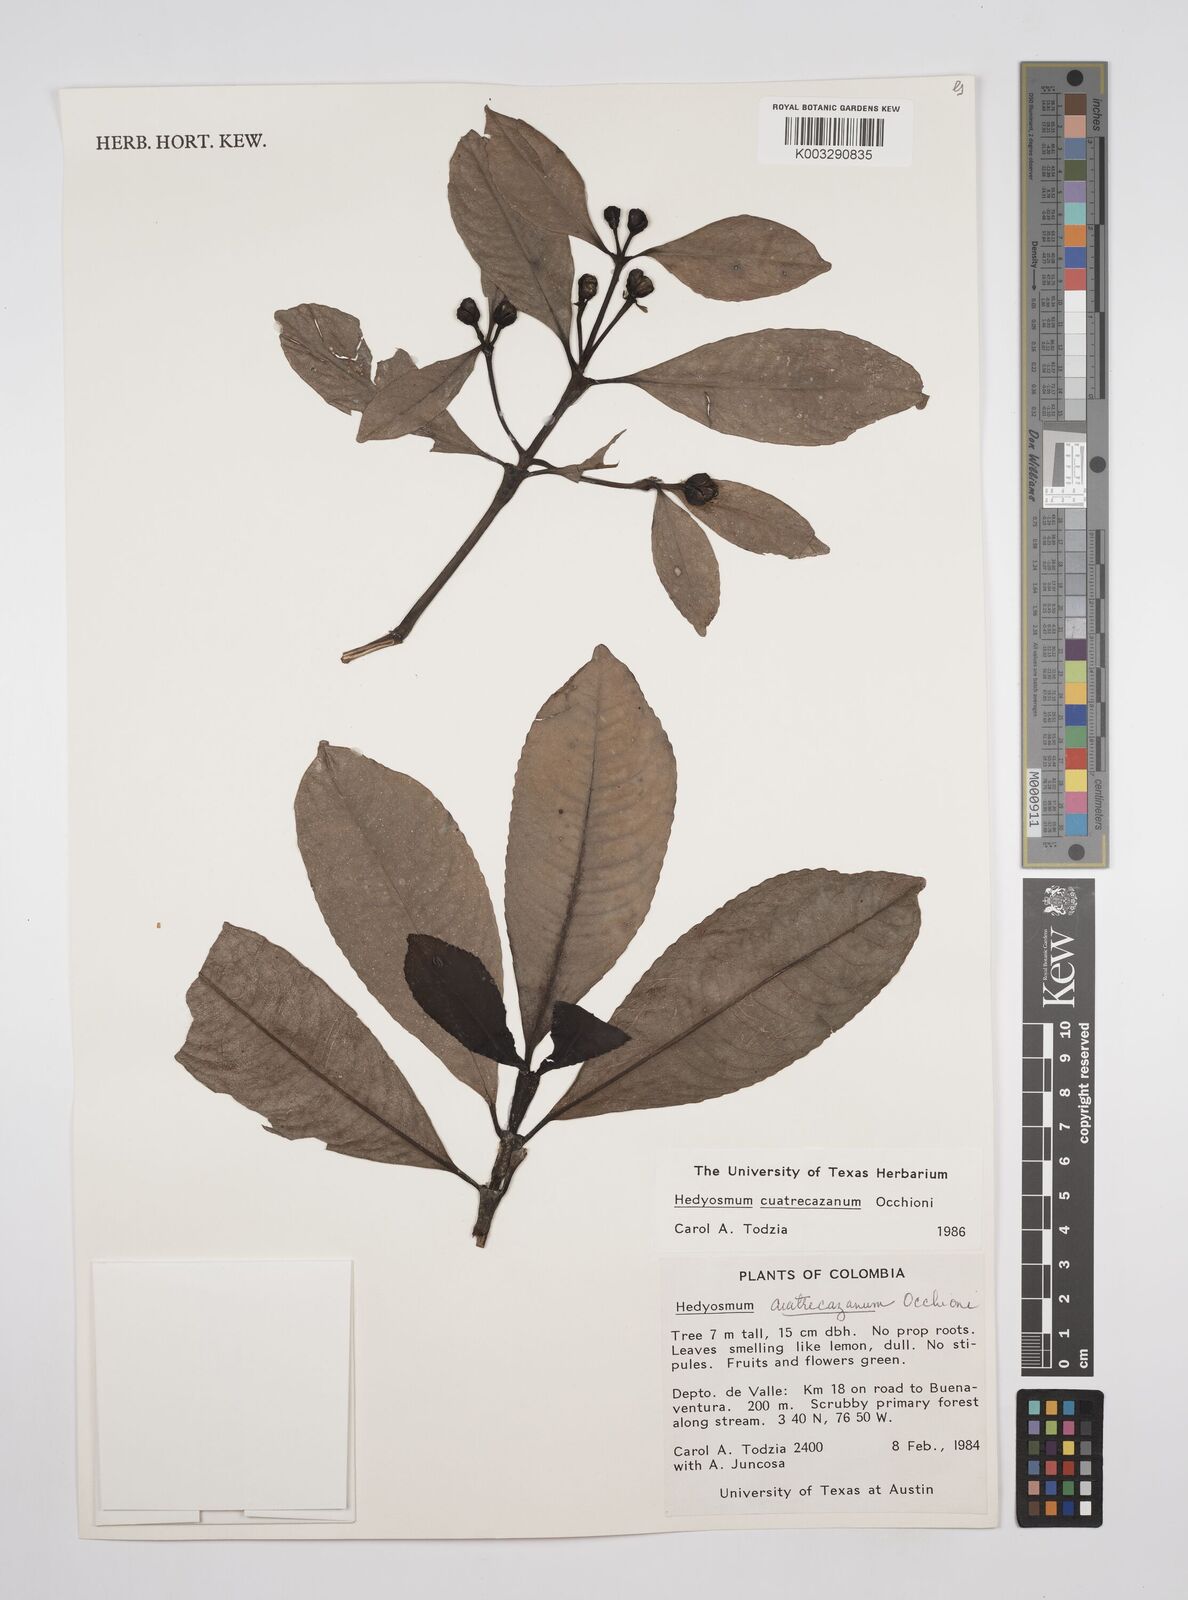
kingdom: Plantae
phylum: Tracheophyta
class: Magnoliopsida
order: Chloranthales
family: Chloranthaceae
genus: Hedyosmum
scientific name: Hedyosmum cuatrecazanum
